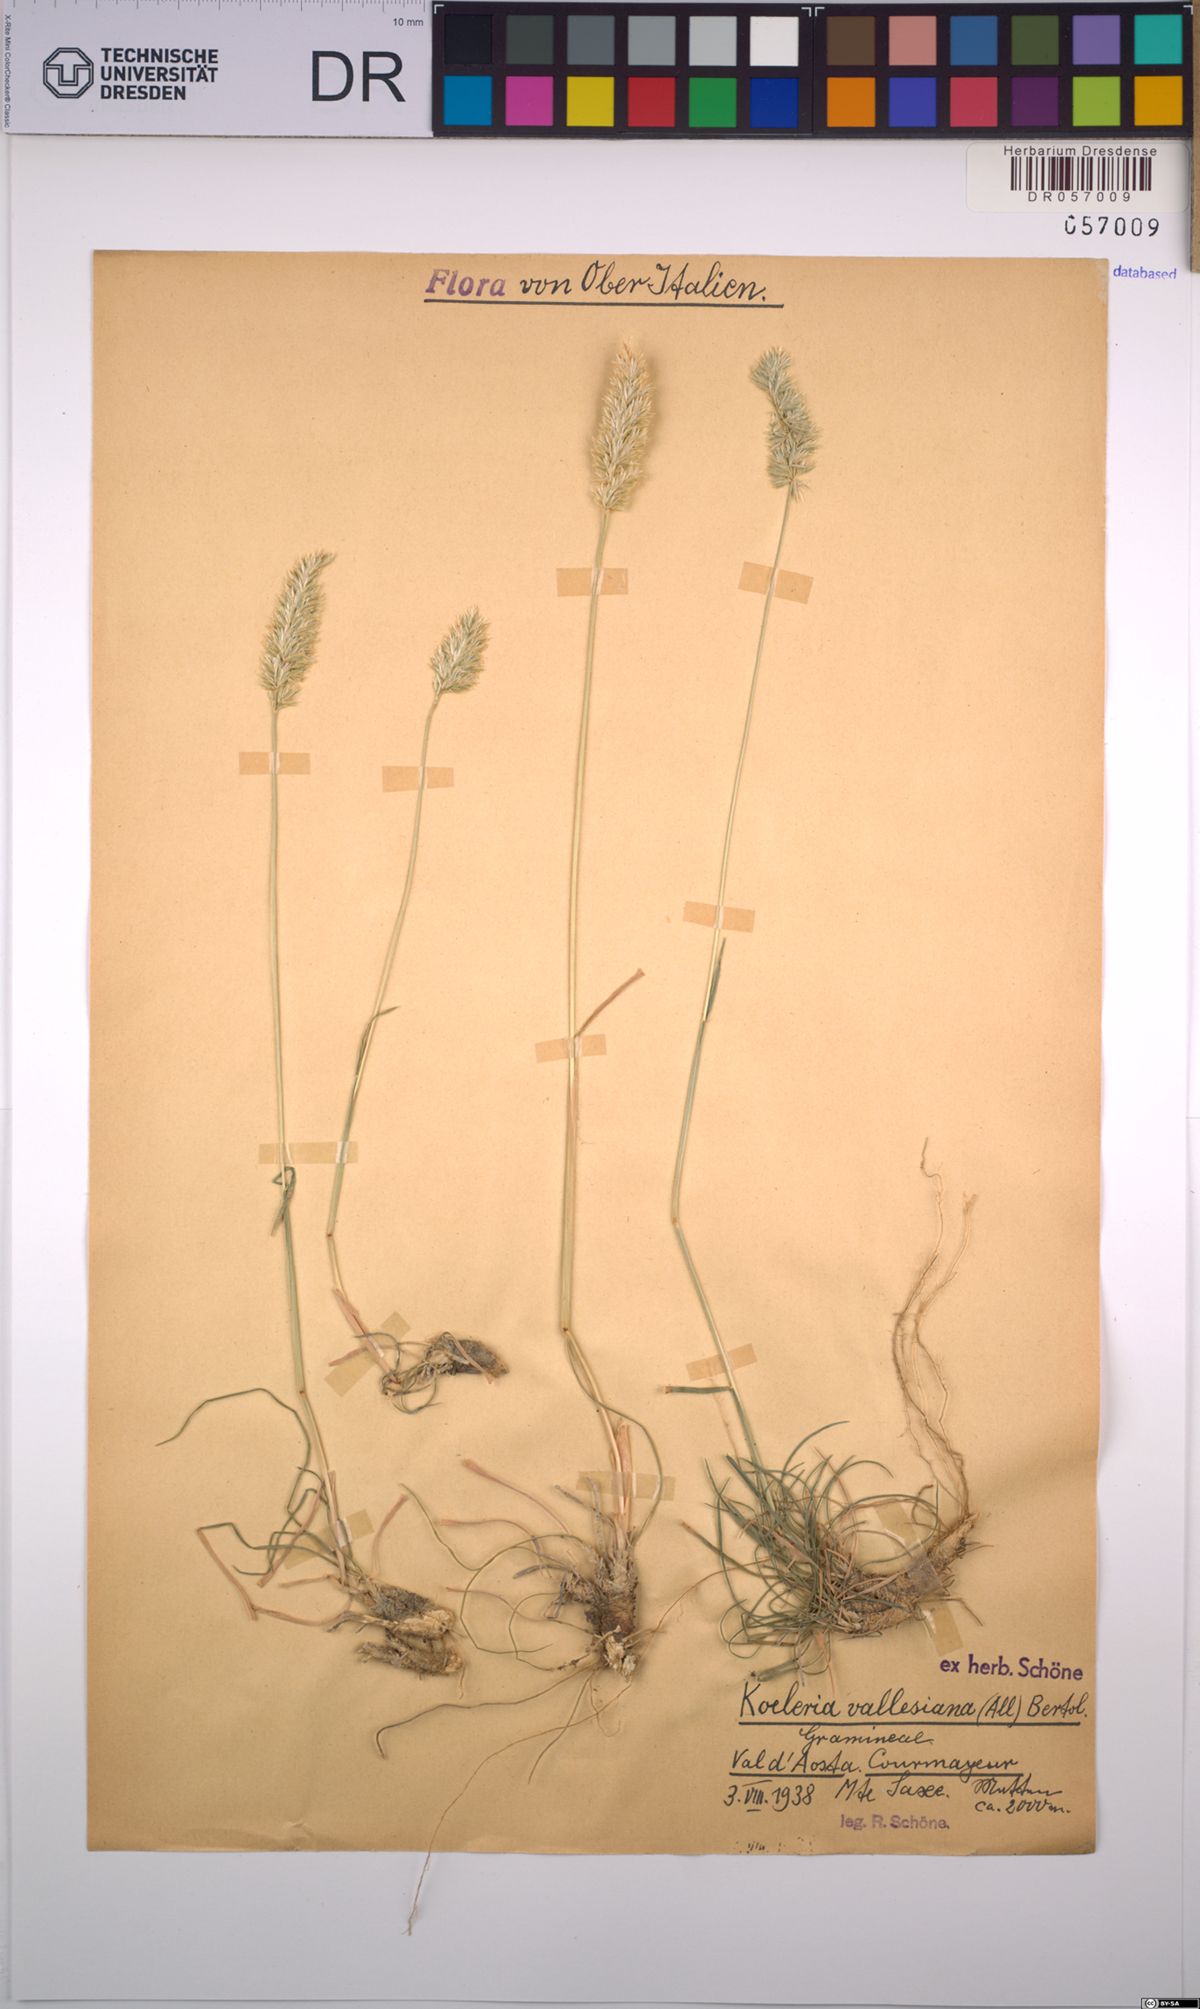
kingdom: Plantae
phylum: Tracheophyta
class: Liliopsida
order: Poales
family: Poaceae
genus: Koeleria
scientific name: Koeleria vallesiana
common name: Somerset hair-grass
